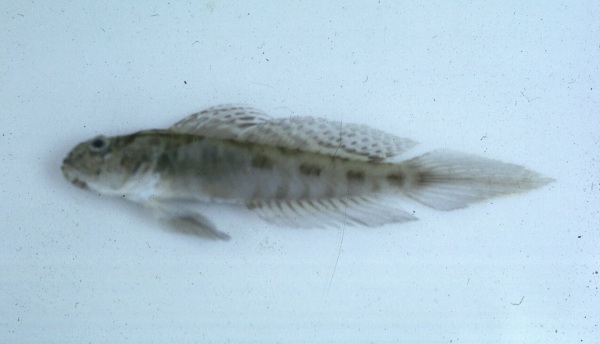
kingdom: Animalia
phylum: Chordata
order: Perciformes
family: Gobiidae
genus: Oxyurichthys
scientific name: Oxyurichthys lonchotus
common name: Speartail mudgoby
